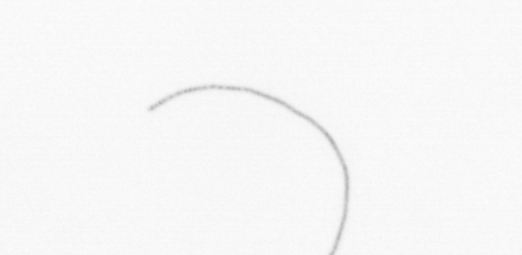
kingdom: Chromista
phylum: Ochrophyta
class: Bacillariophyceae
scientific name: Bacillariophyceae
